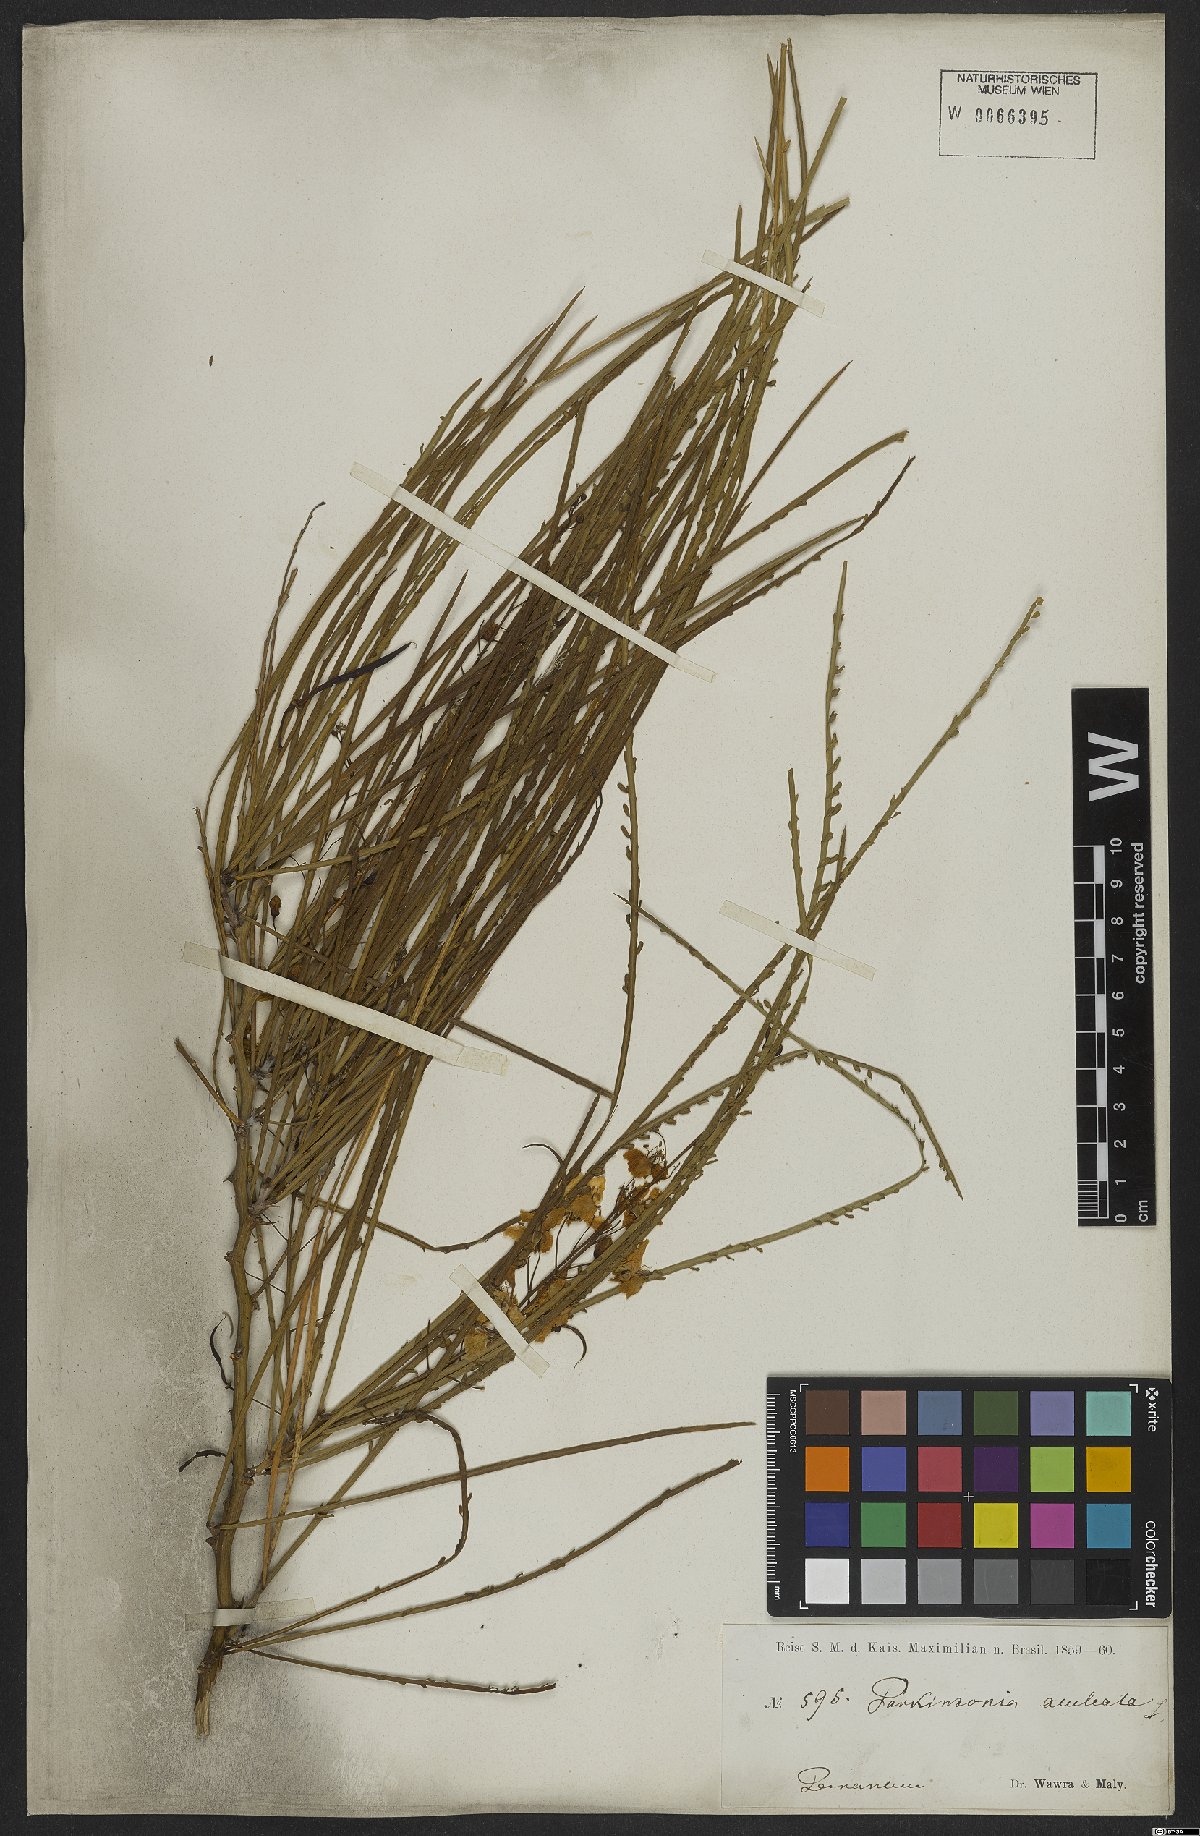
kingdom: Plantae
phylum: Tracheophyta
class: Magnoliopsida
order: Fabales
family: Fabaceae
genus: Parkinsonia
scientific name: Parkinsonia aculeata
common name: Jerusalem thorn
